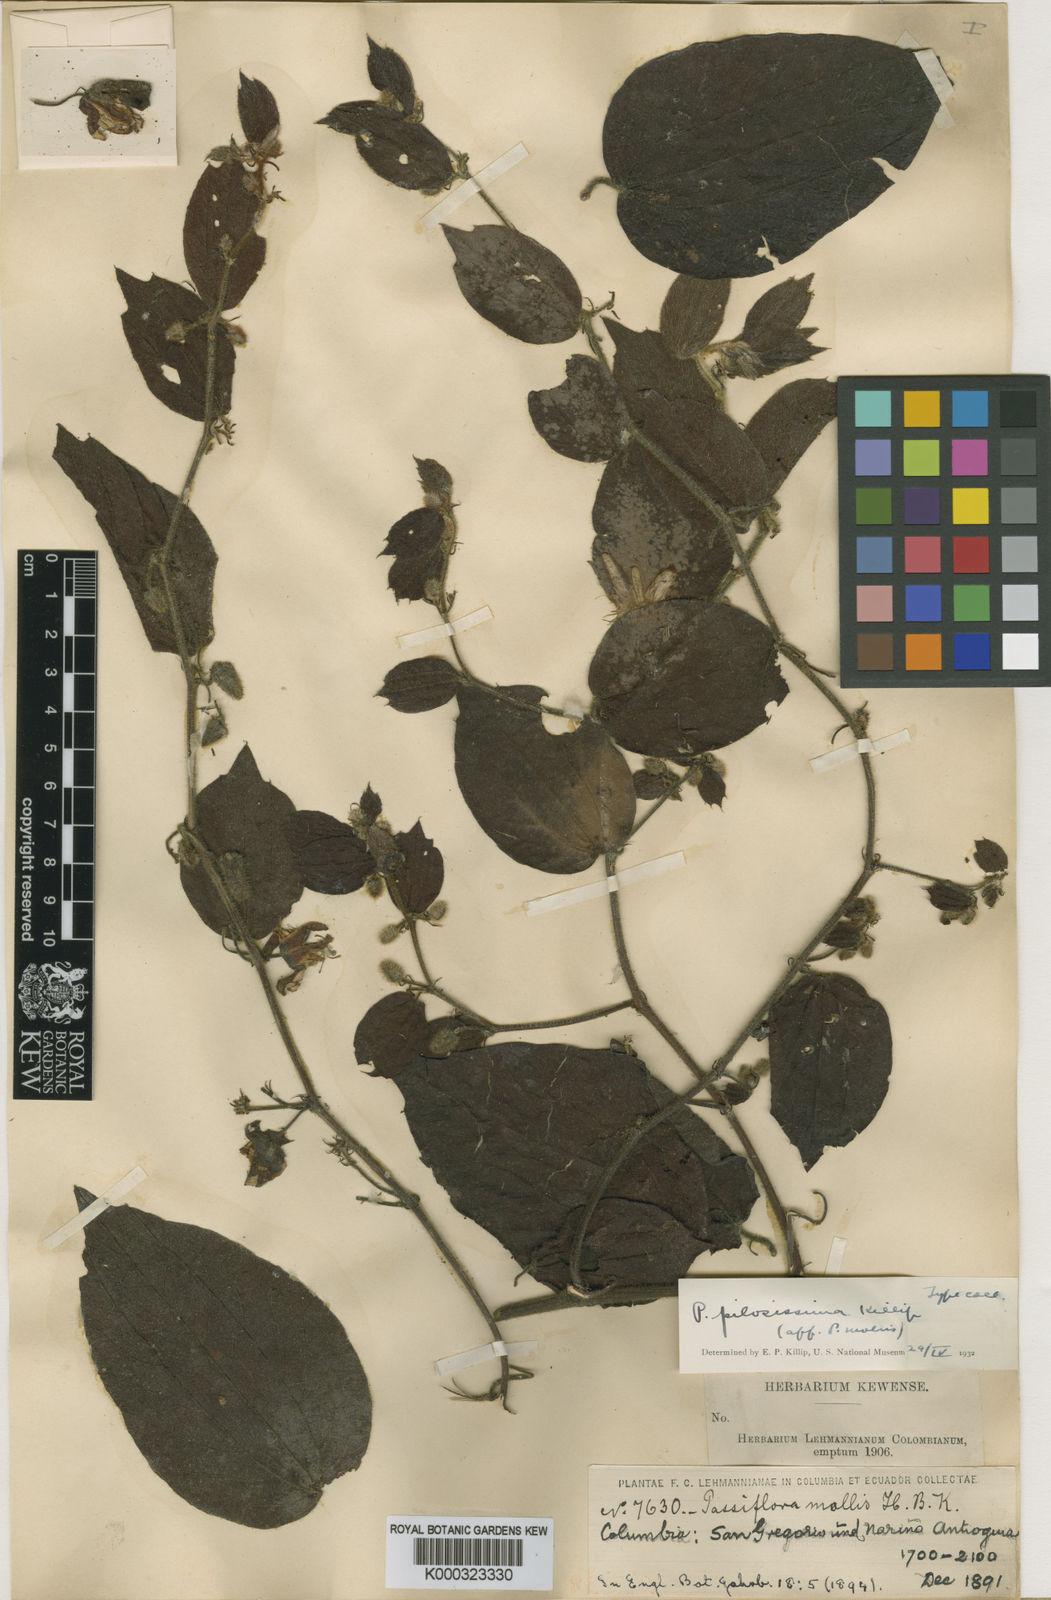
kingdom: Plantae
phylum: Tracheophyta
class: Magnoliopsida
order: Malpighiales
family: Passifloraceae
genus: Passiflora
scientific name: Passiflora pilosissima
